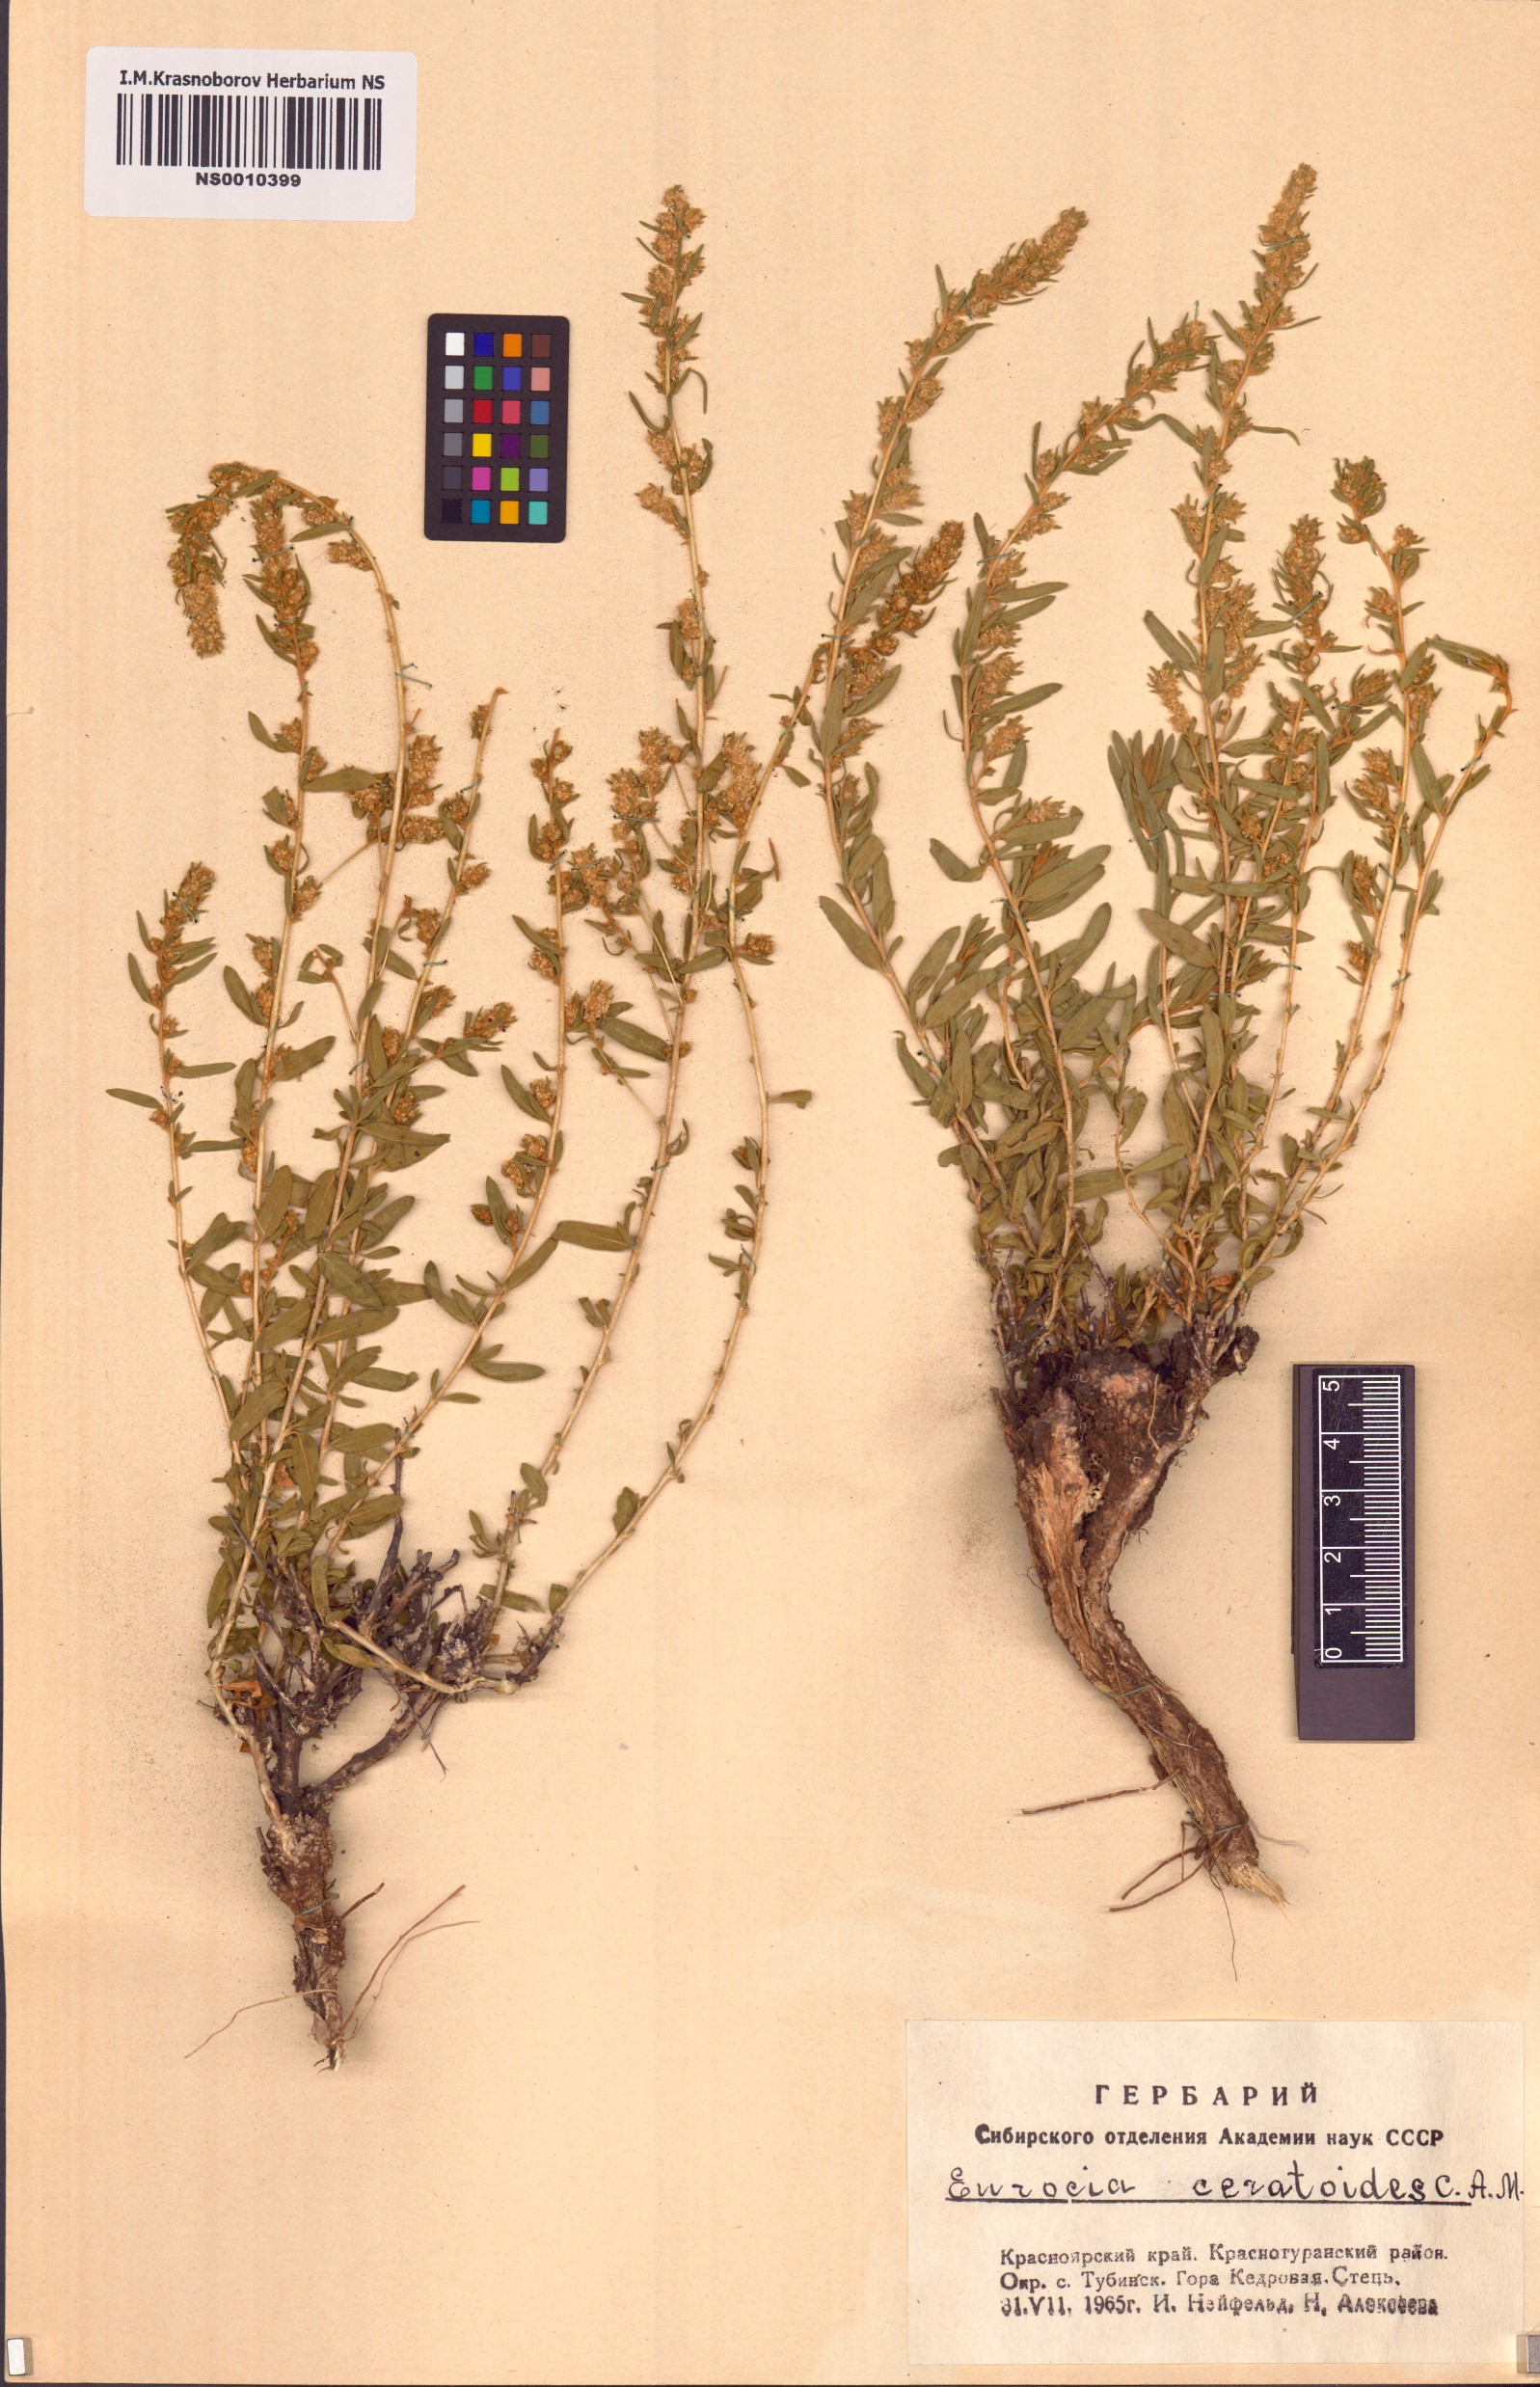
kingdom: Plantae
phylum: Tracheophyta
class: Magnoliopsida
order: Caryophyllales
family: Amaranthaceae
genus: Krascheninnikovia
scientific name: Krascheninnikovia ceratoides
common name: Pamirian winterfat
